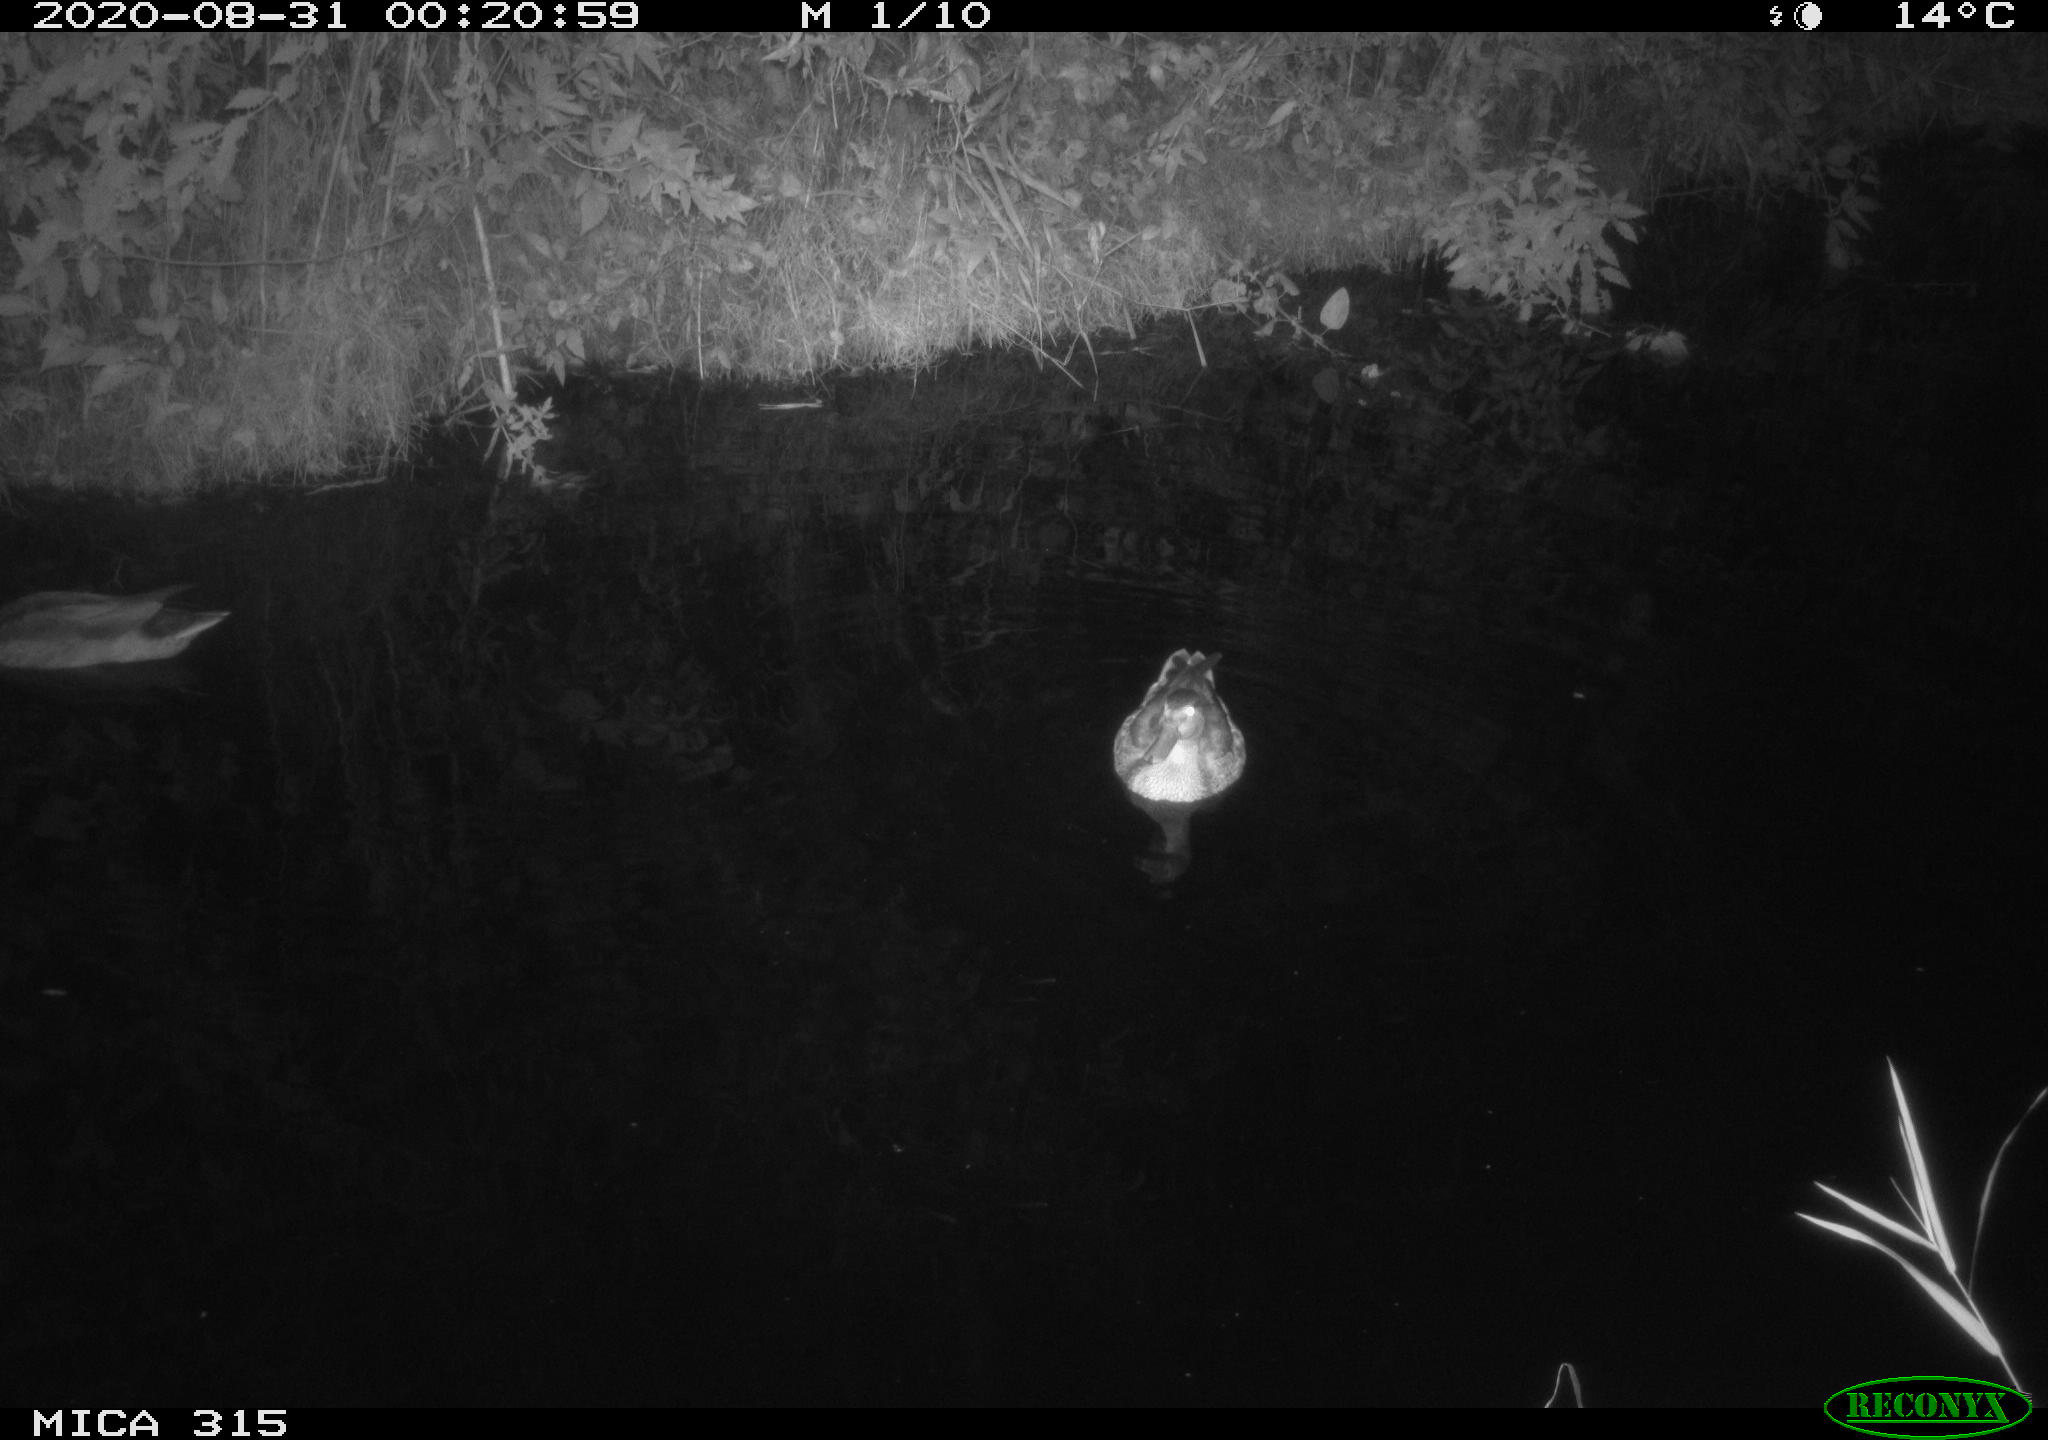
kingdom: Animalia
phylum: Chordata
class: Aves
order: Anseriformes
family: Anatidae
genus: Anas
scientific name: Anas platyrhynchos
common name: Mallard
